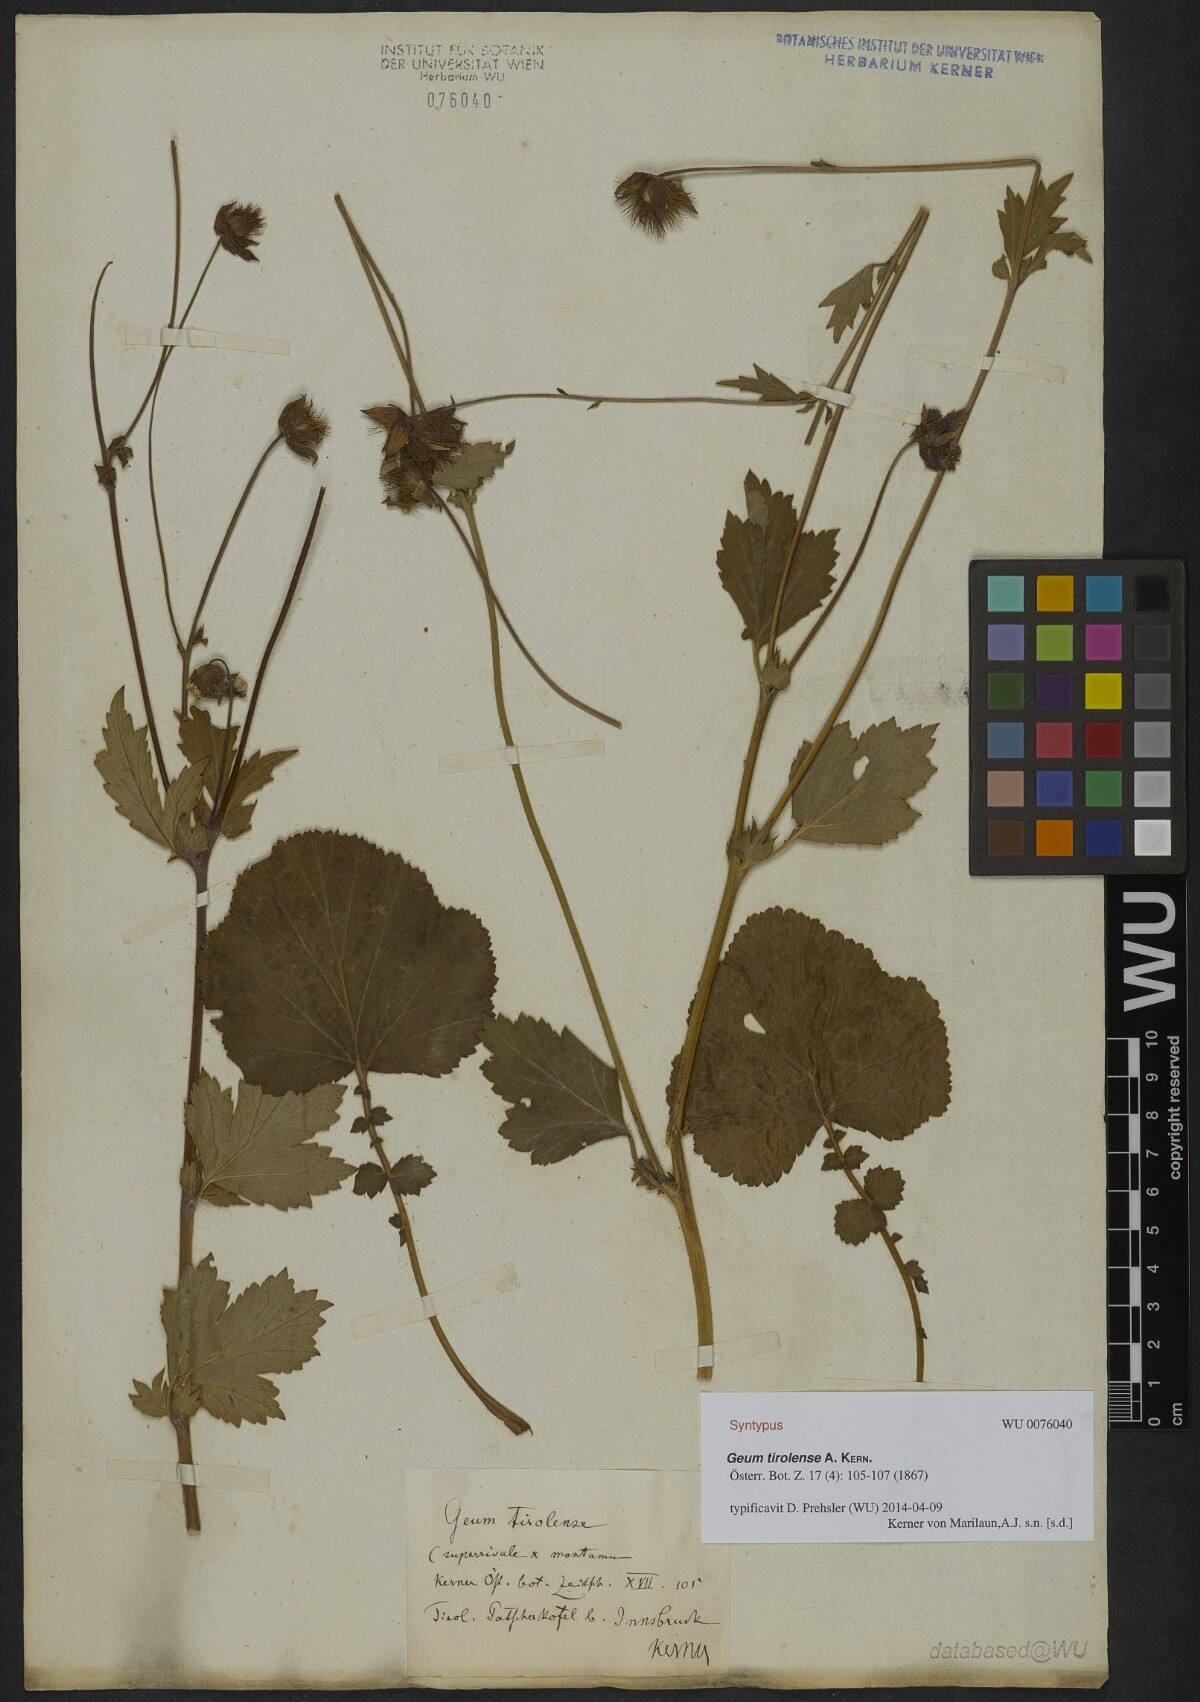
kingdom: Plantae
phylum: Tracheophyta
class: Magnoliopsida
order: Rosales
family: Rosaceae
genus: Geum
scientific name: Geum sudeticum
